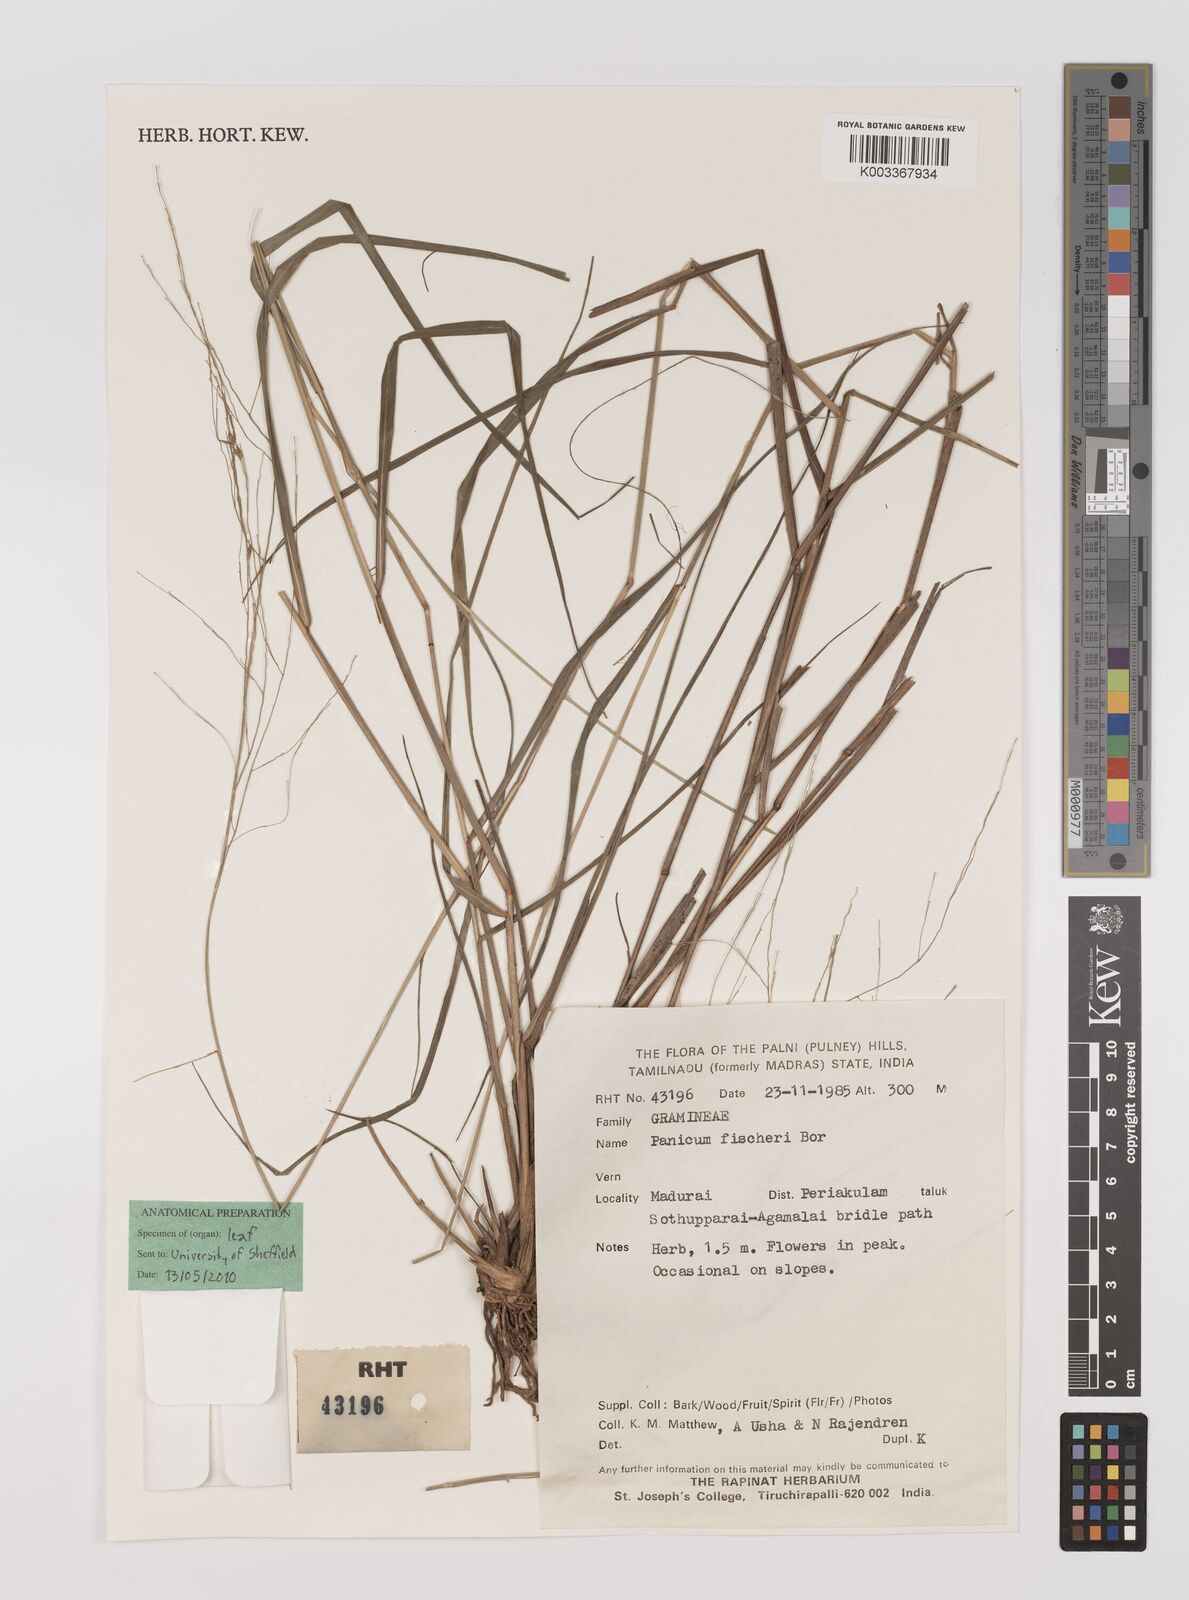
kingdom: Plantae
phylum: Tracheophyta
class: Liliopsida
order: Poales
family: Poaceae
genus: Panicum
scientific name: Panicum fischeri
